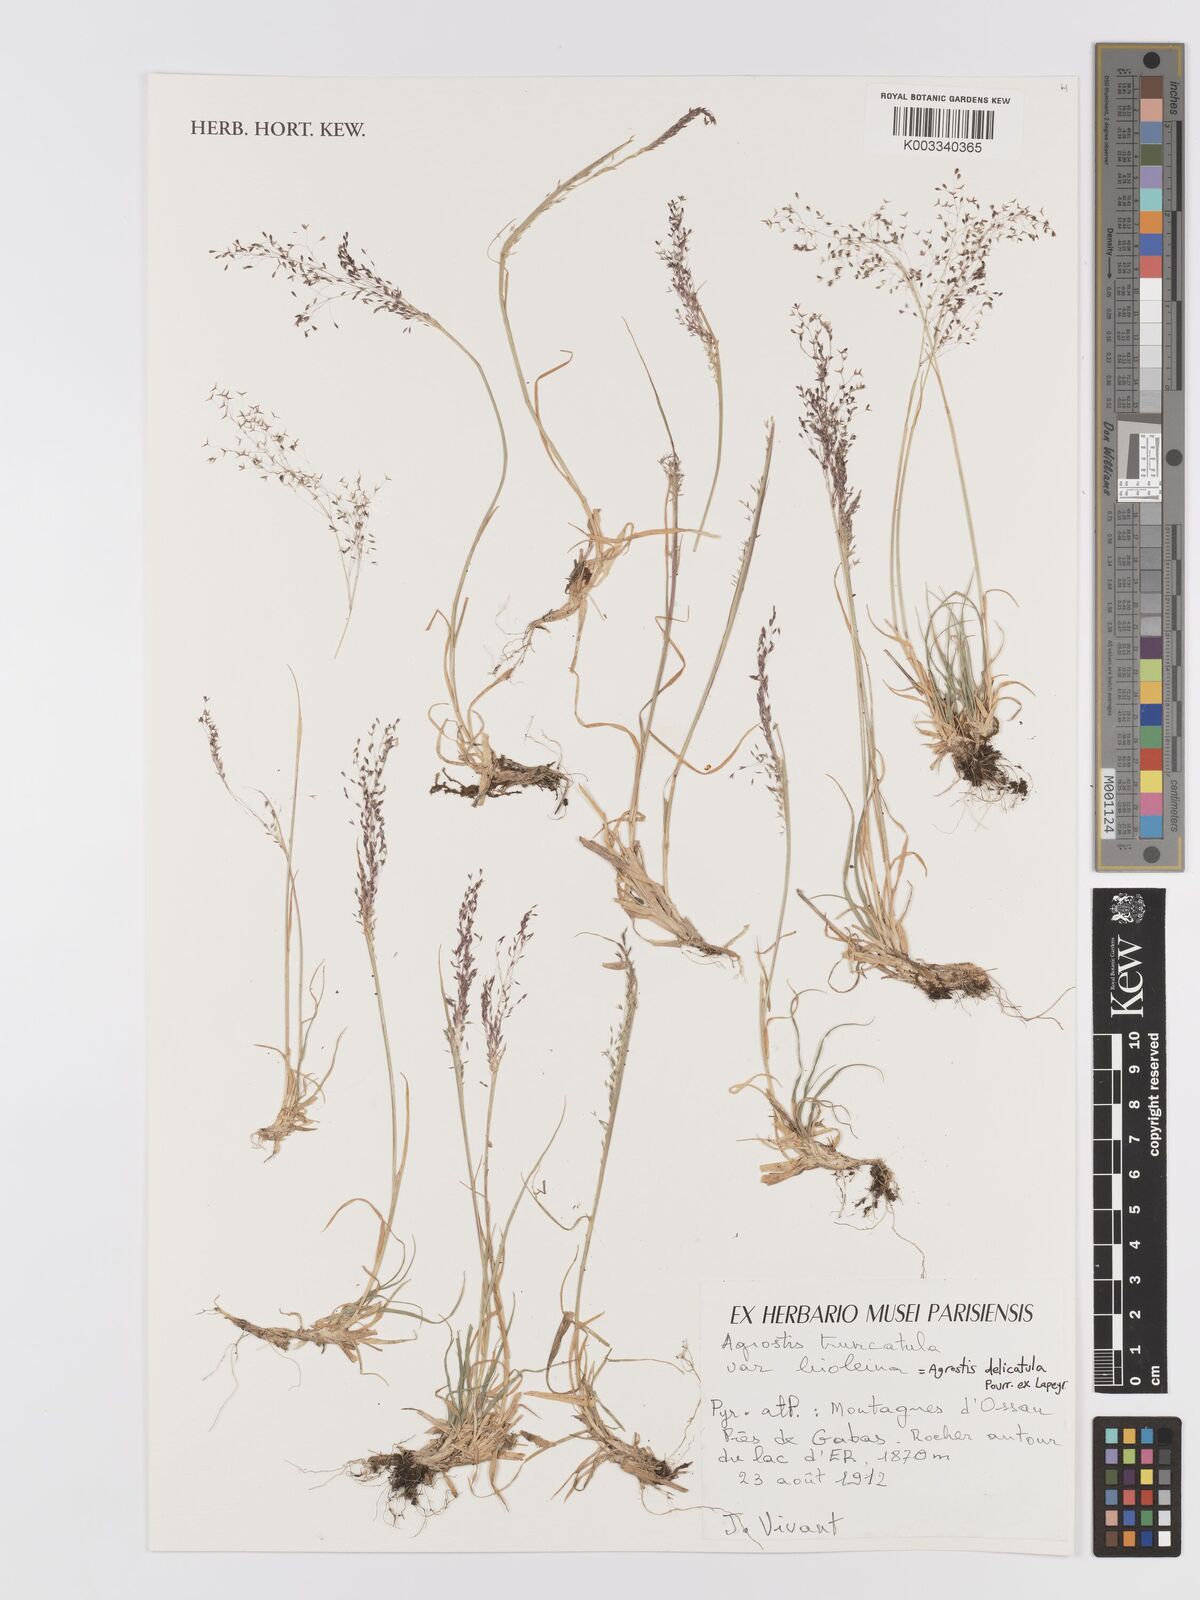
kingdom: Plantae
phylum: Tracheophyta
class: Liliopsida
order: Poales
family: Poaceae
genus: Agrostis
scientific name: Agrostis castellana
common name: Highland bent
